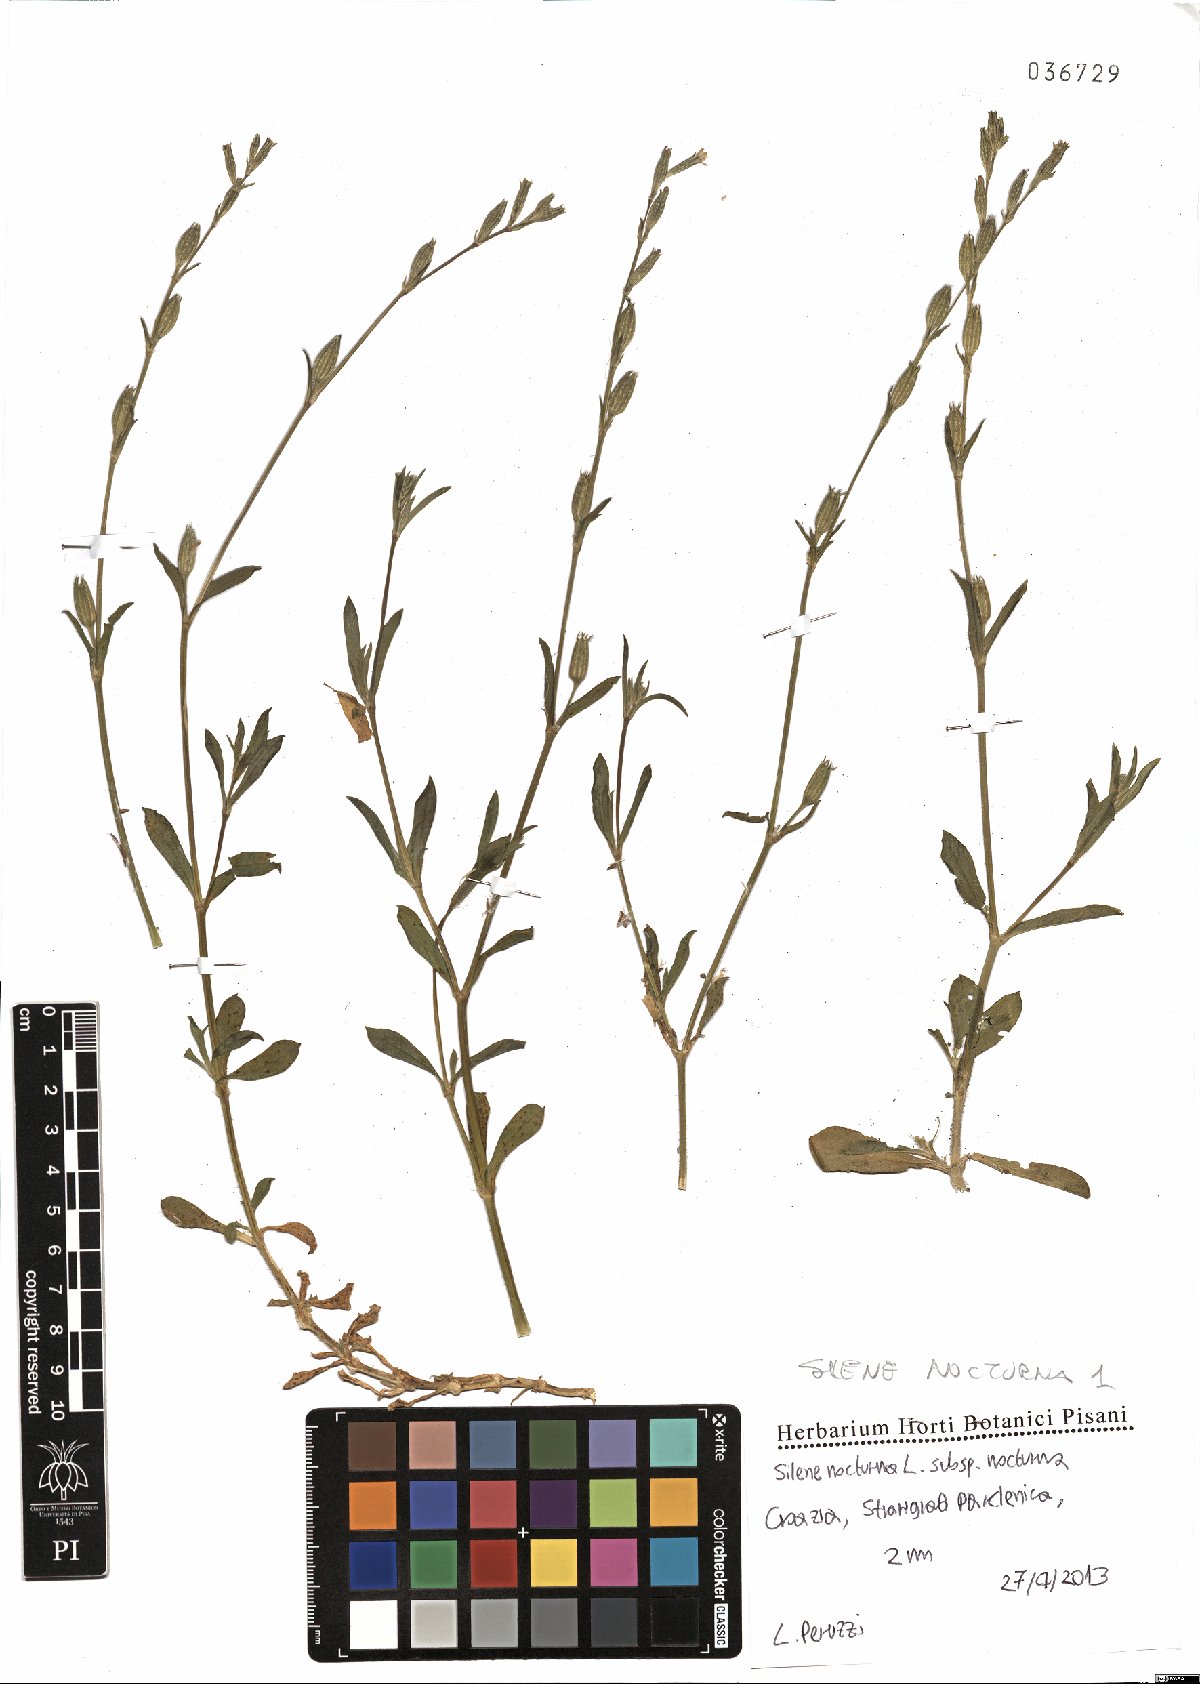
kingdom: Plantae
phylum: Tracheophyta
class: Magnoliopsida
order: Caryophyllales
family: Caryophyllaceae
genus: Silene
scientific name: Silene nocturna
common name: Mediterranean catchfly
